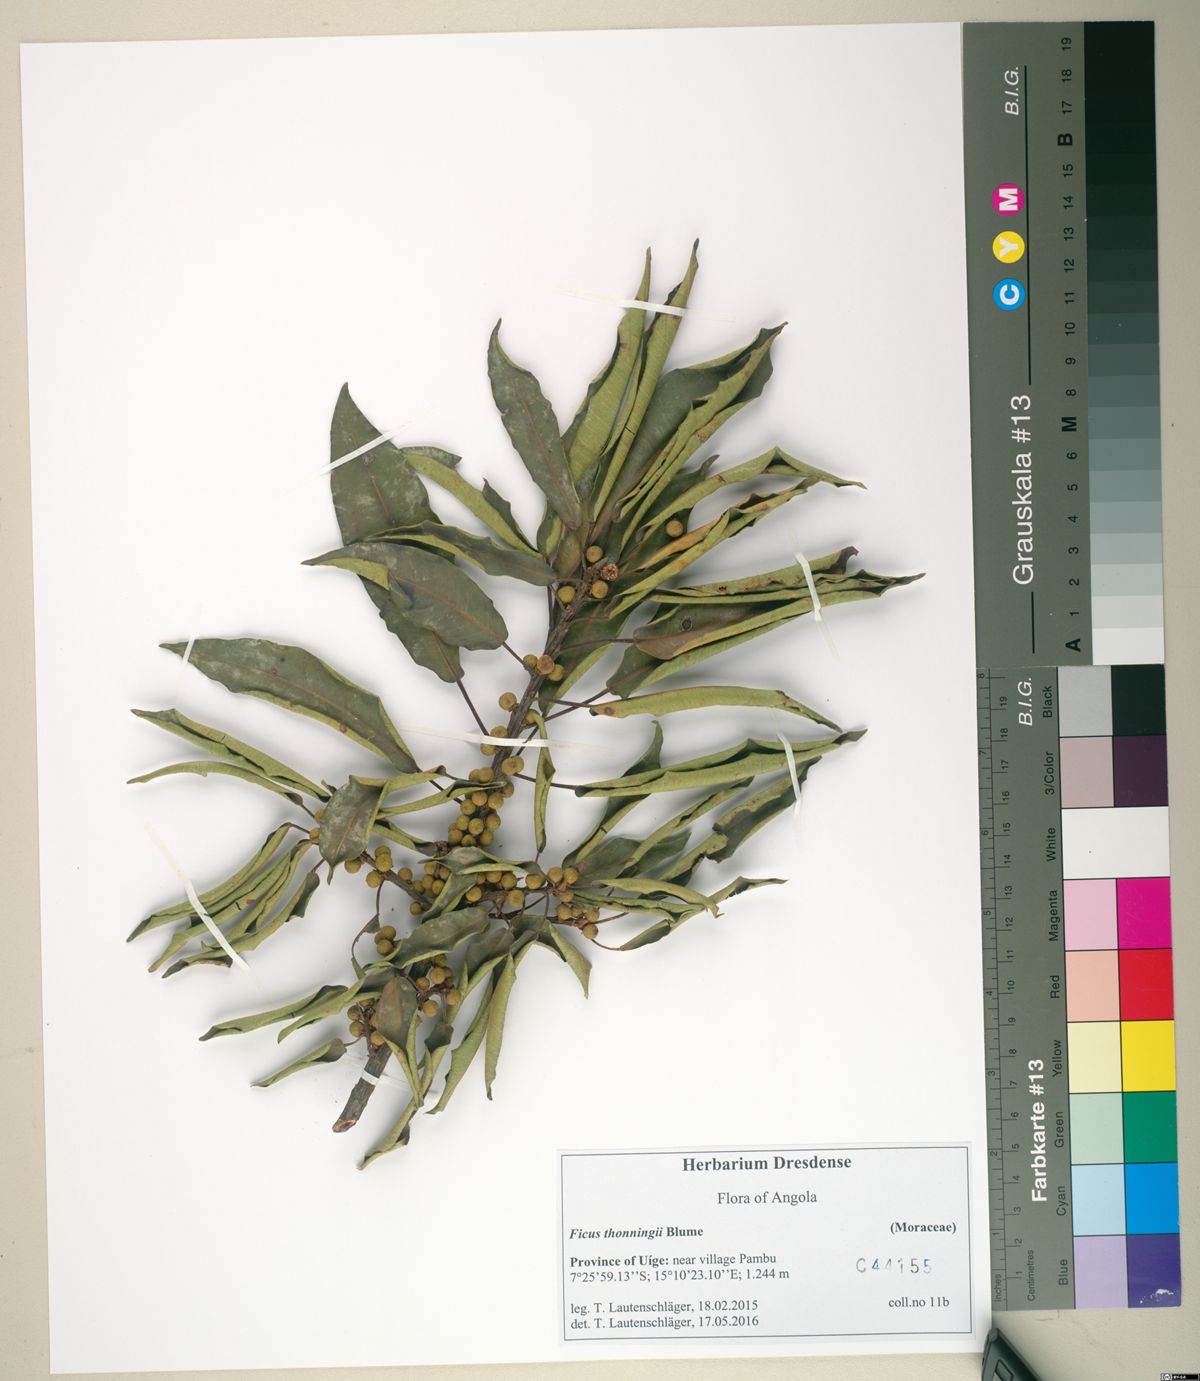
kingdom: Plantae
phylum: Tracheophyta
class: Magnoliopsida
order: Rosales
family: Moraceae
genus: Ficus
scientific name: Ficus thonningii
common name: Fig
